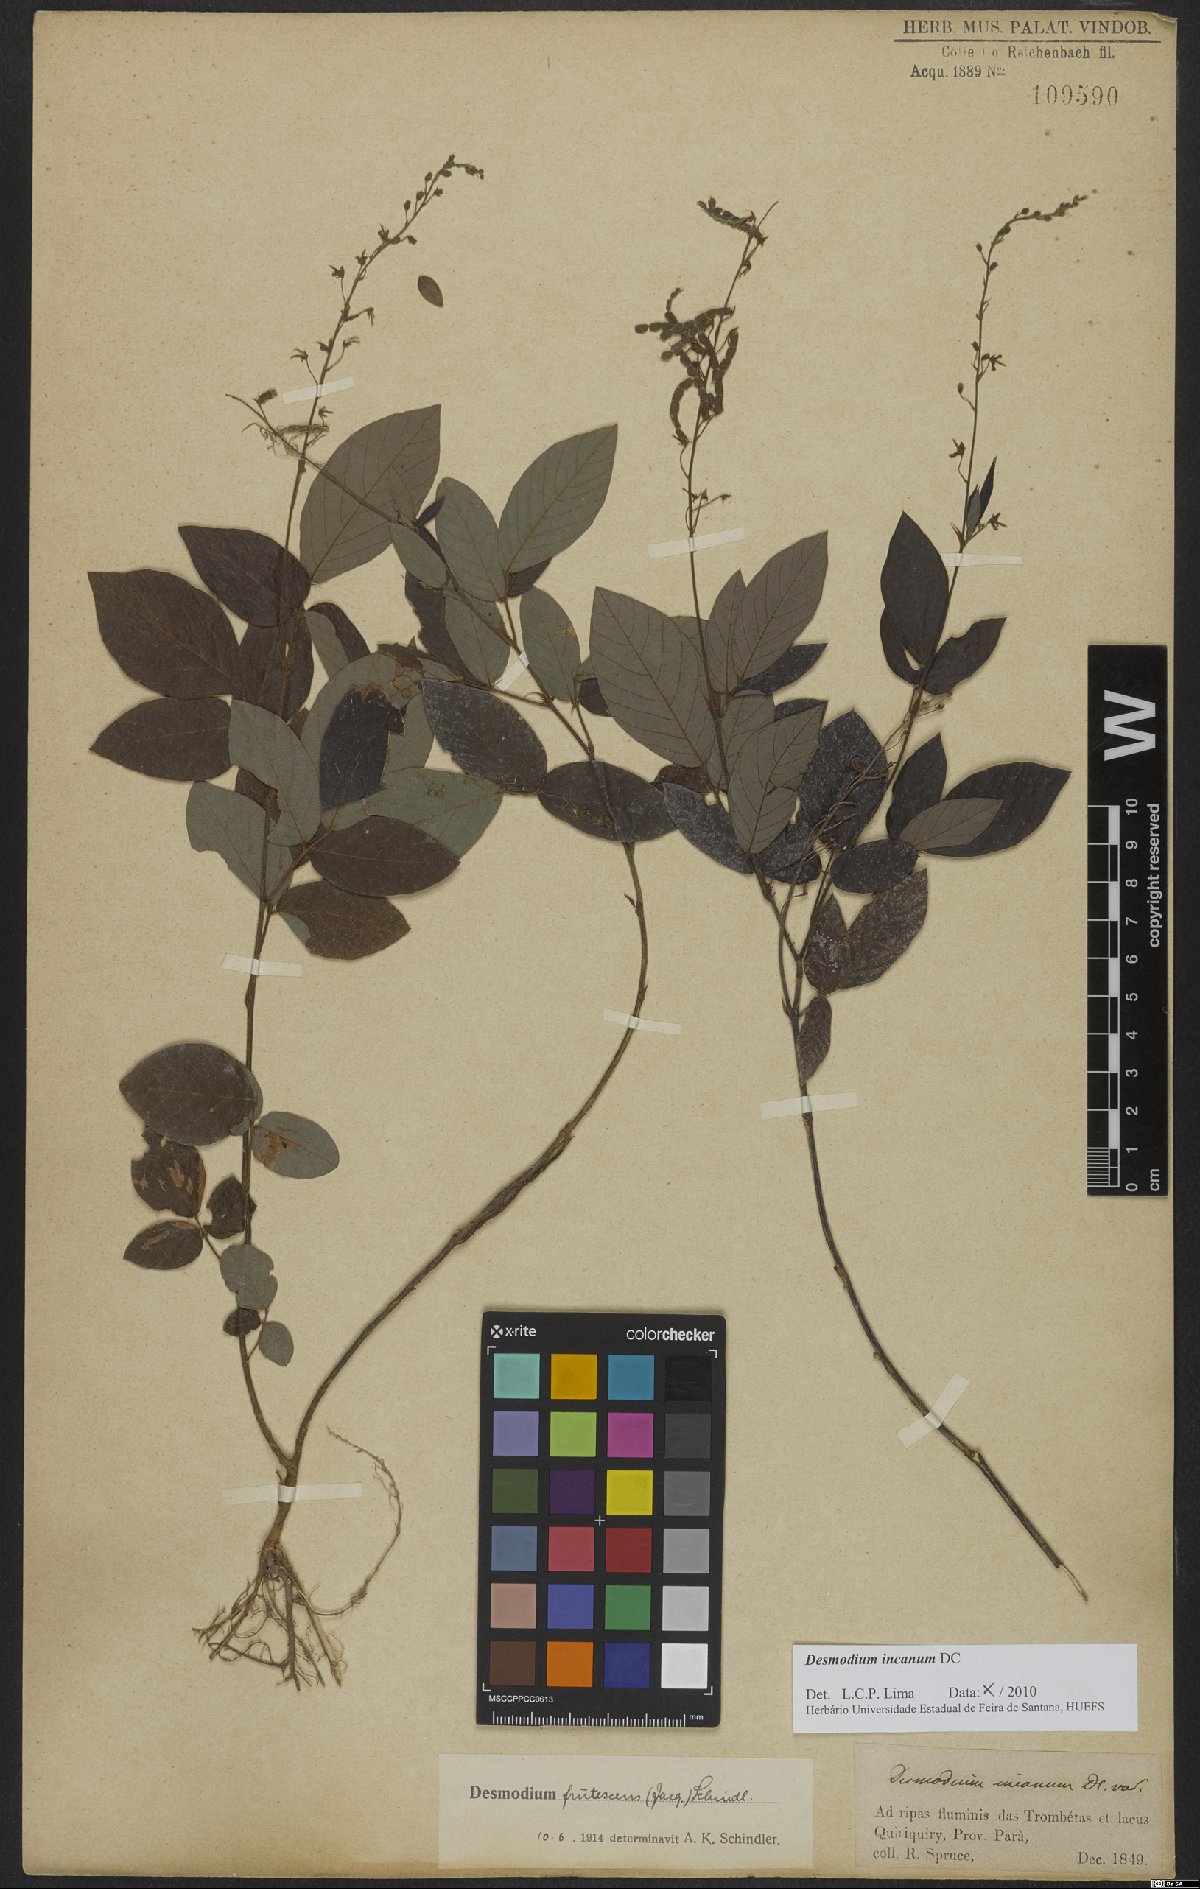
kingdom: Plantae
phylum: Tracheophyta
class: Magnoliopsida
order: Fabales
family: Fabaceae
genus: Desmodium
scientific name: Desmodium incanum
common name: Tickclover
